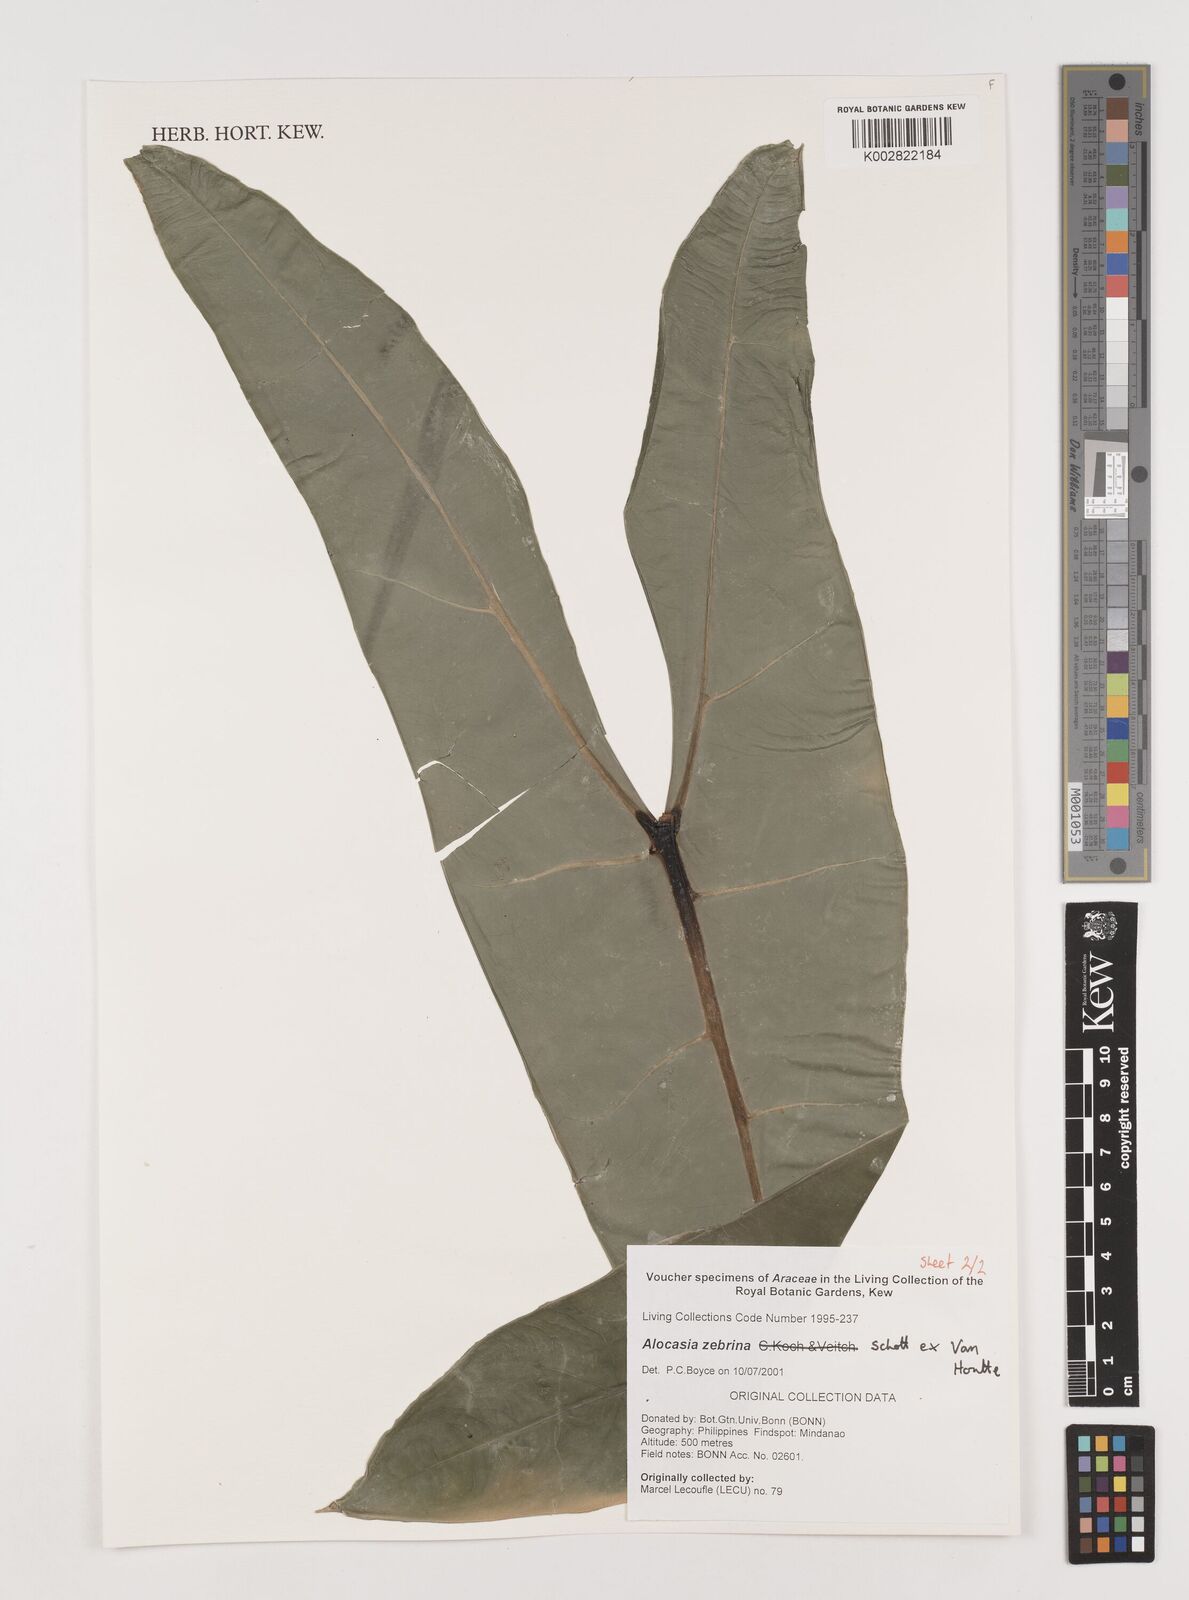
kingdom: Plantae
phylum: Tracheophyta
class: Liliopsida
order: Alismatales
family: Araceae
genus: Alocasia
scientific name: Alocasia zebrina
